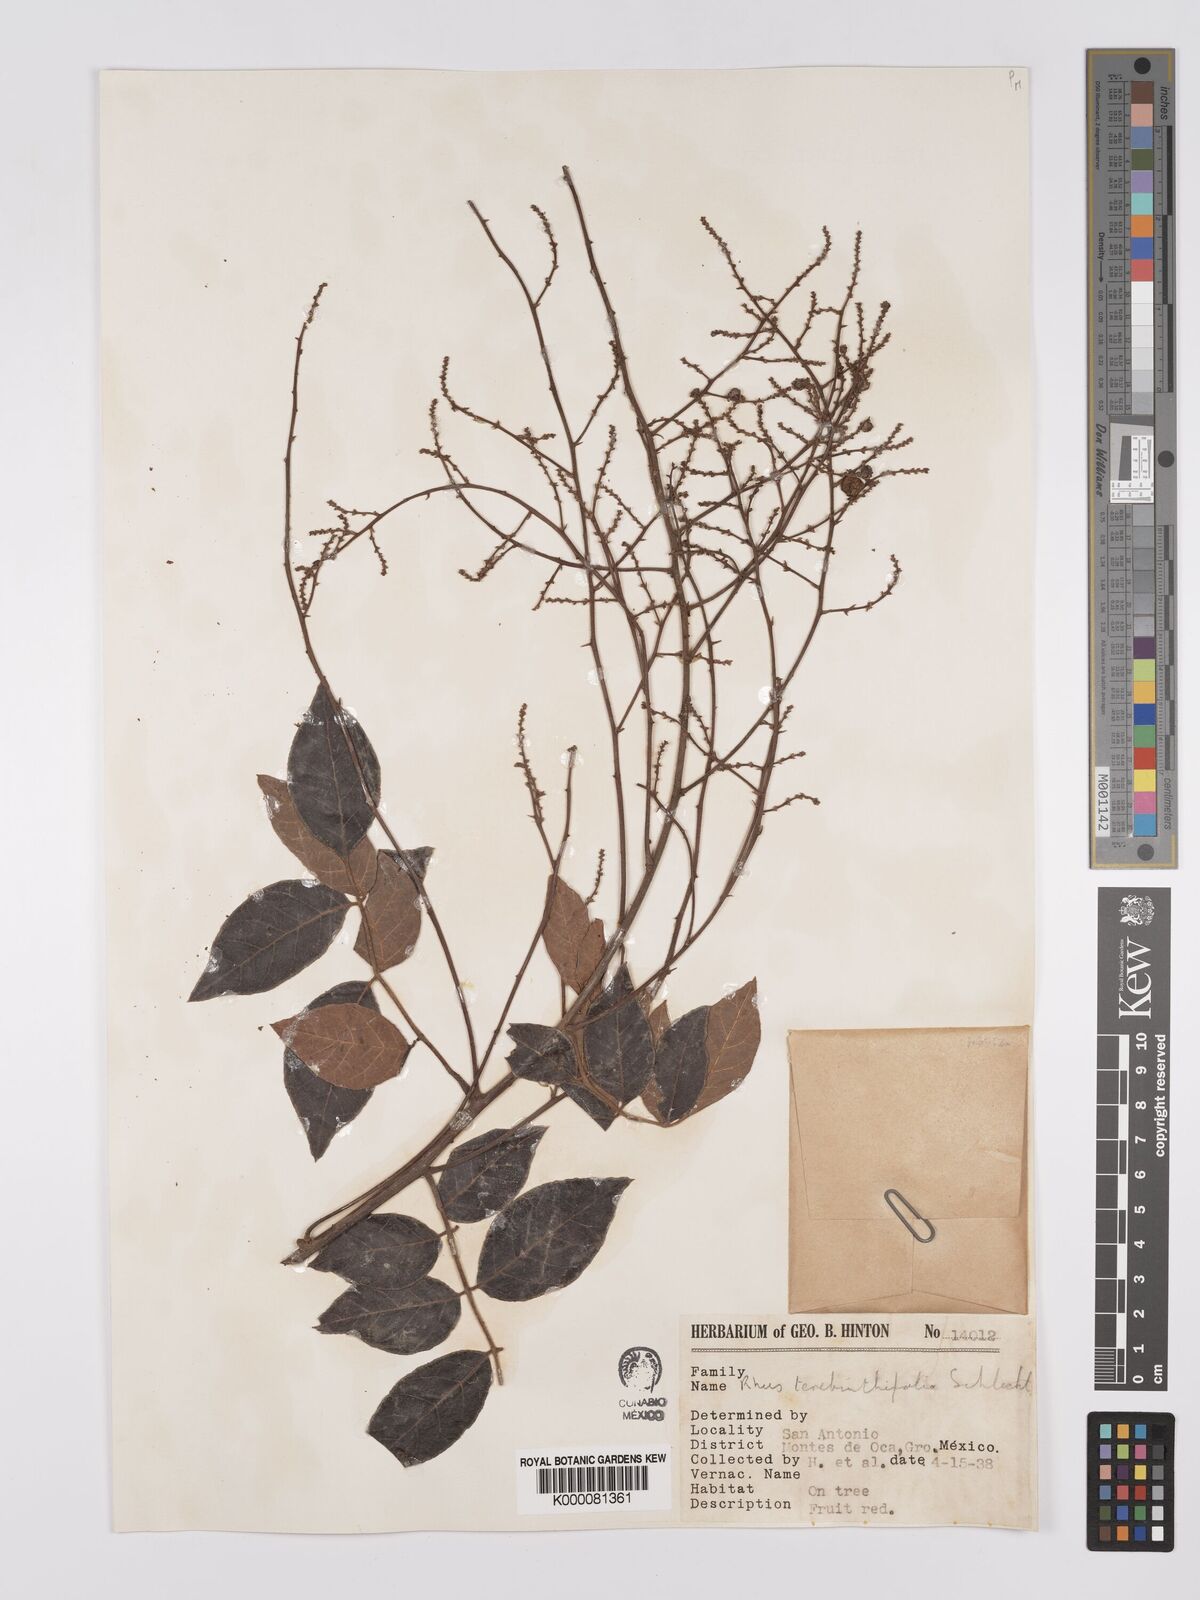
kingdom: Plantae
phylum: Tracheophyta
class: Magnoliopsida
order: Sapindales
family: Anacardiaceae
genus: Rhus
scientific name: Rhus
